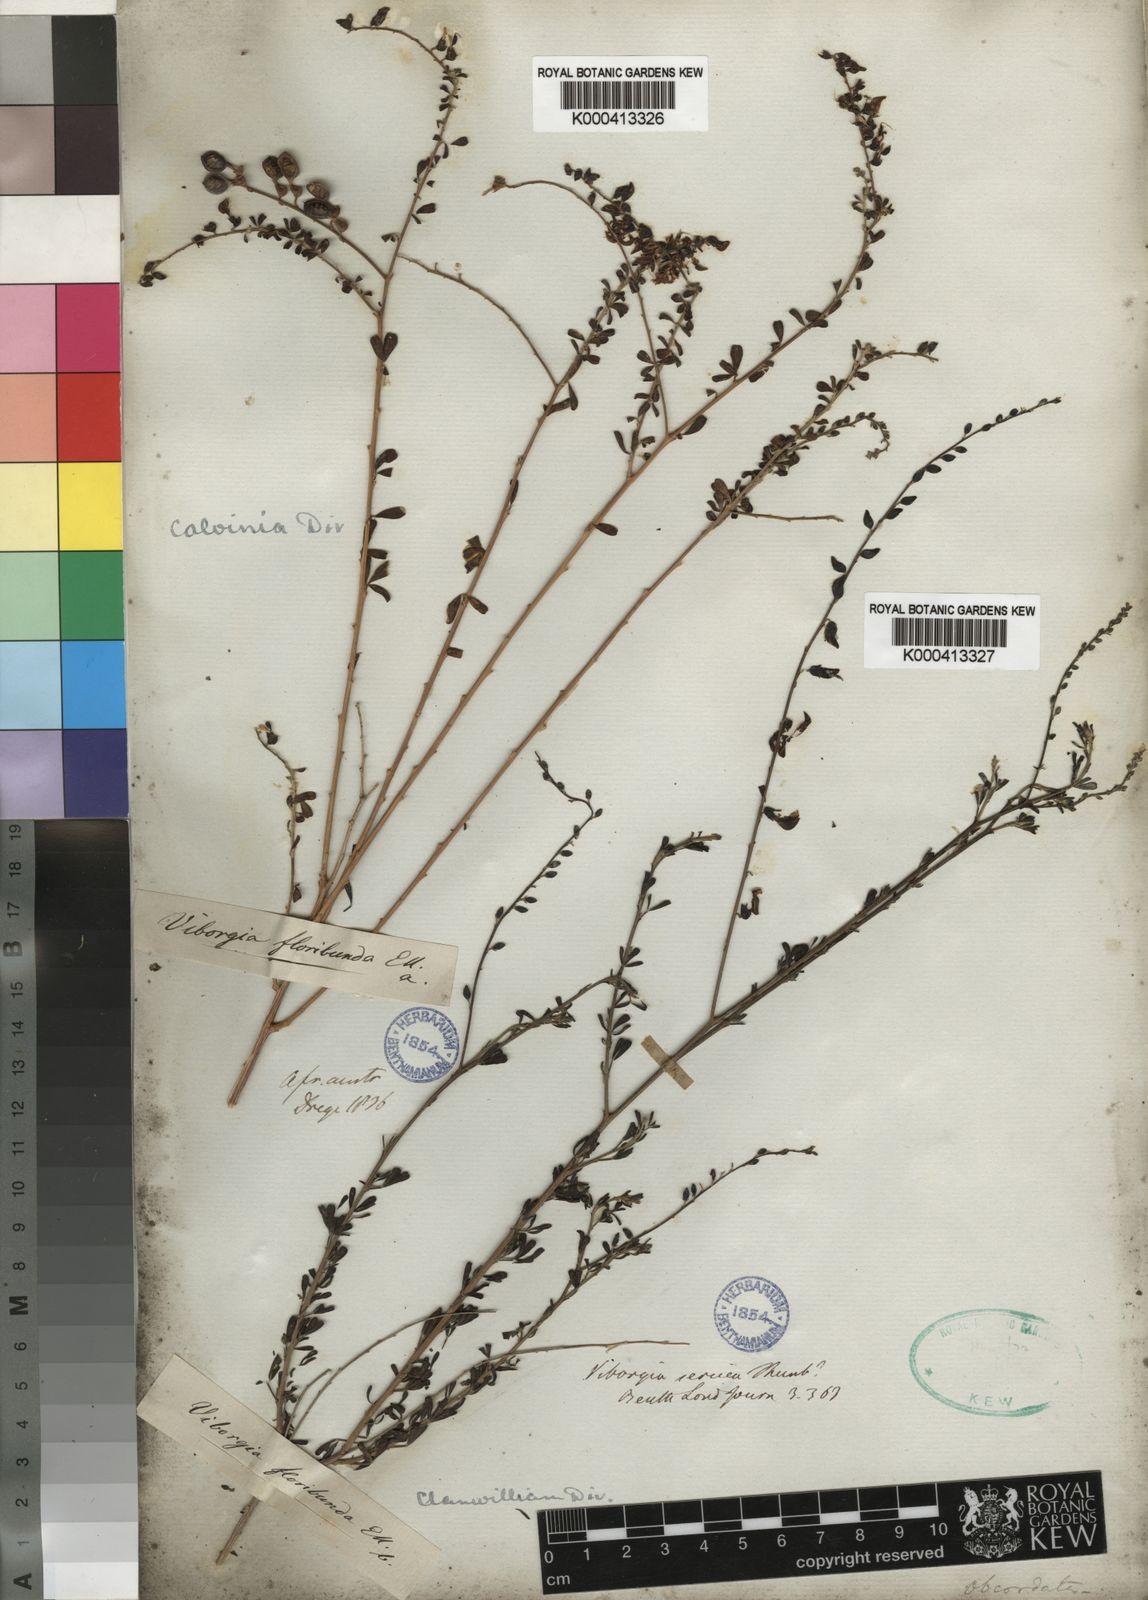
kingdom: Plantae
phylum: Tracheophyta
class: Magnoliopsida
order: Fabales
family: Fabaceae
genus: Wiborgia
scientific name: Wiborgia obcordata
